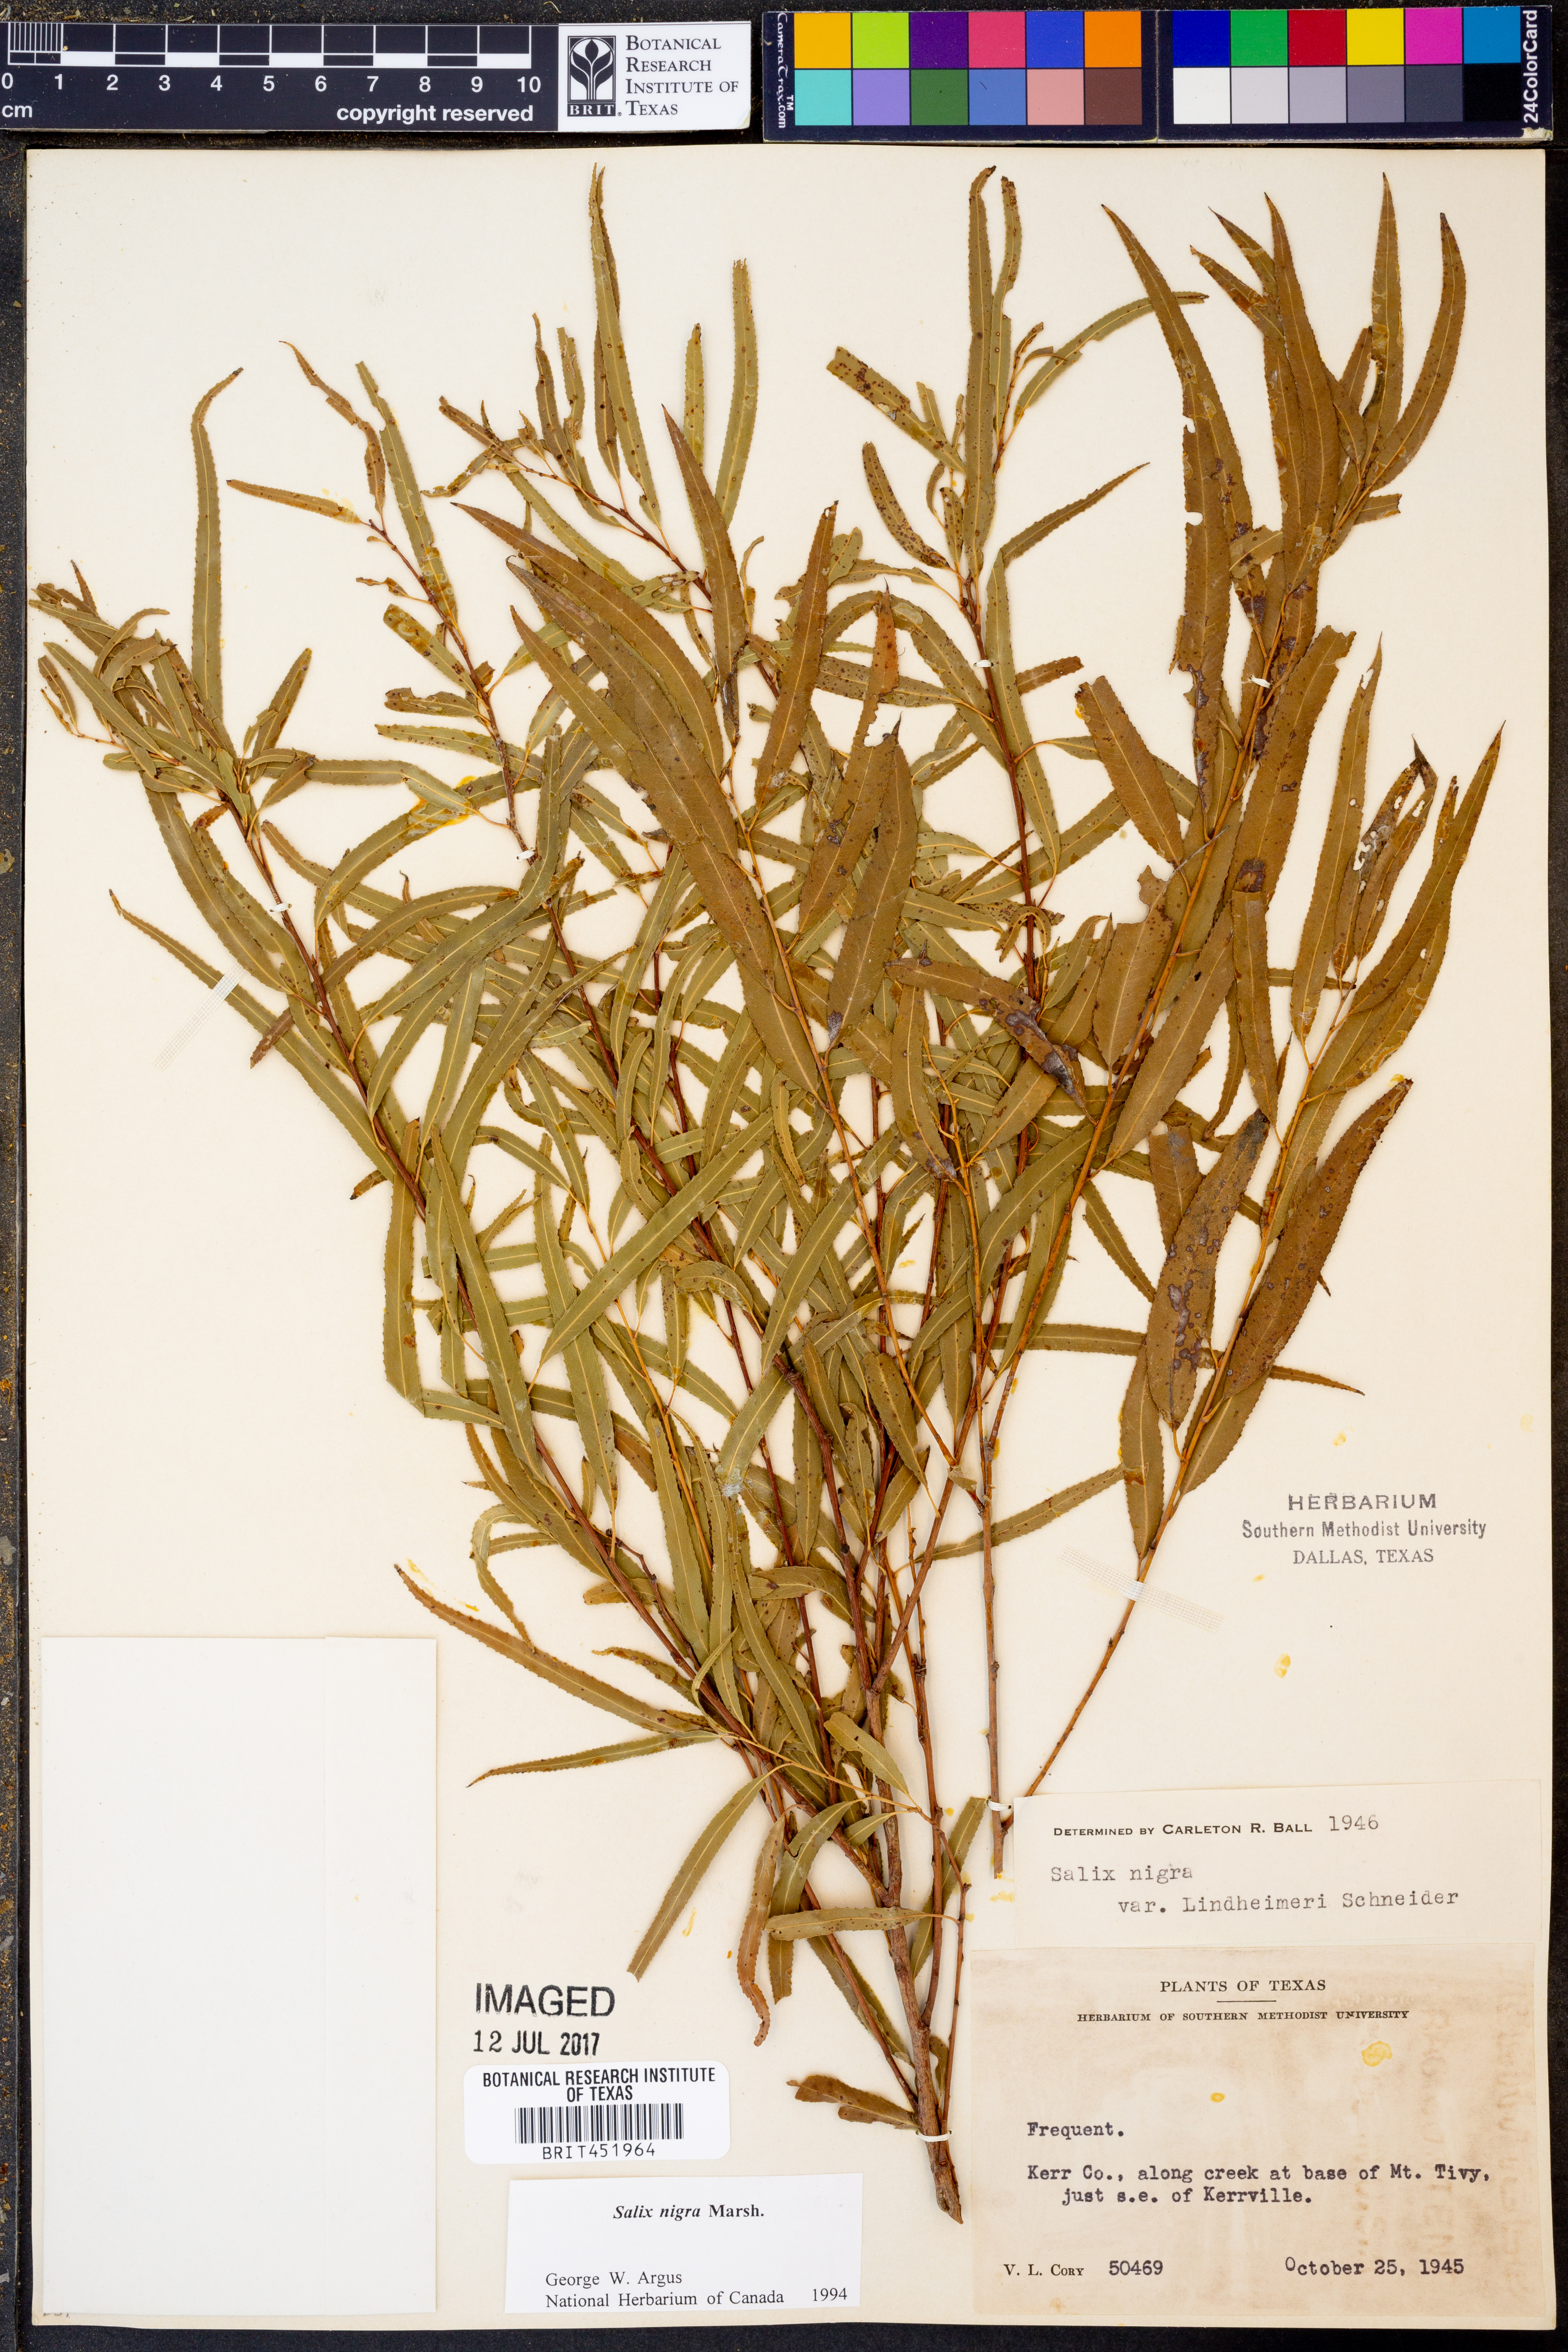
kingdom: Plantae
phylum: Tracheophyta
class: Magnoliopsida
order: Malpighiales
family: Salicaceae
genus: Salix
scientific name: Salix nigra
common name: Black willow
